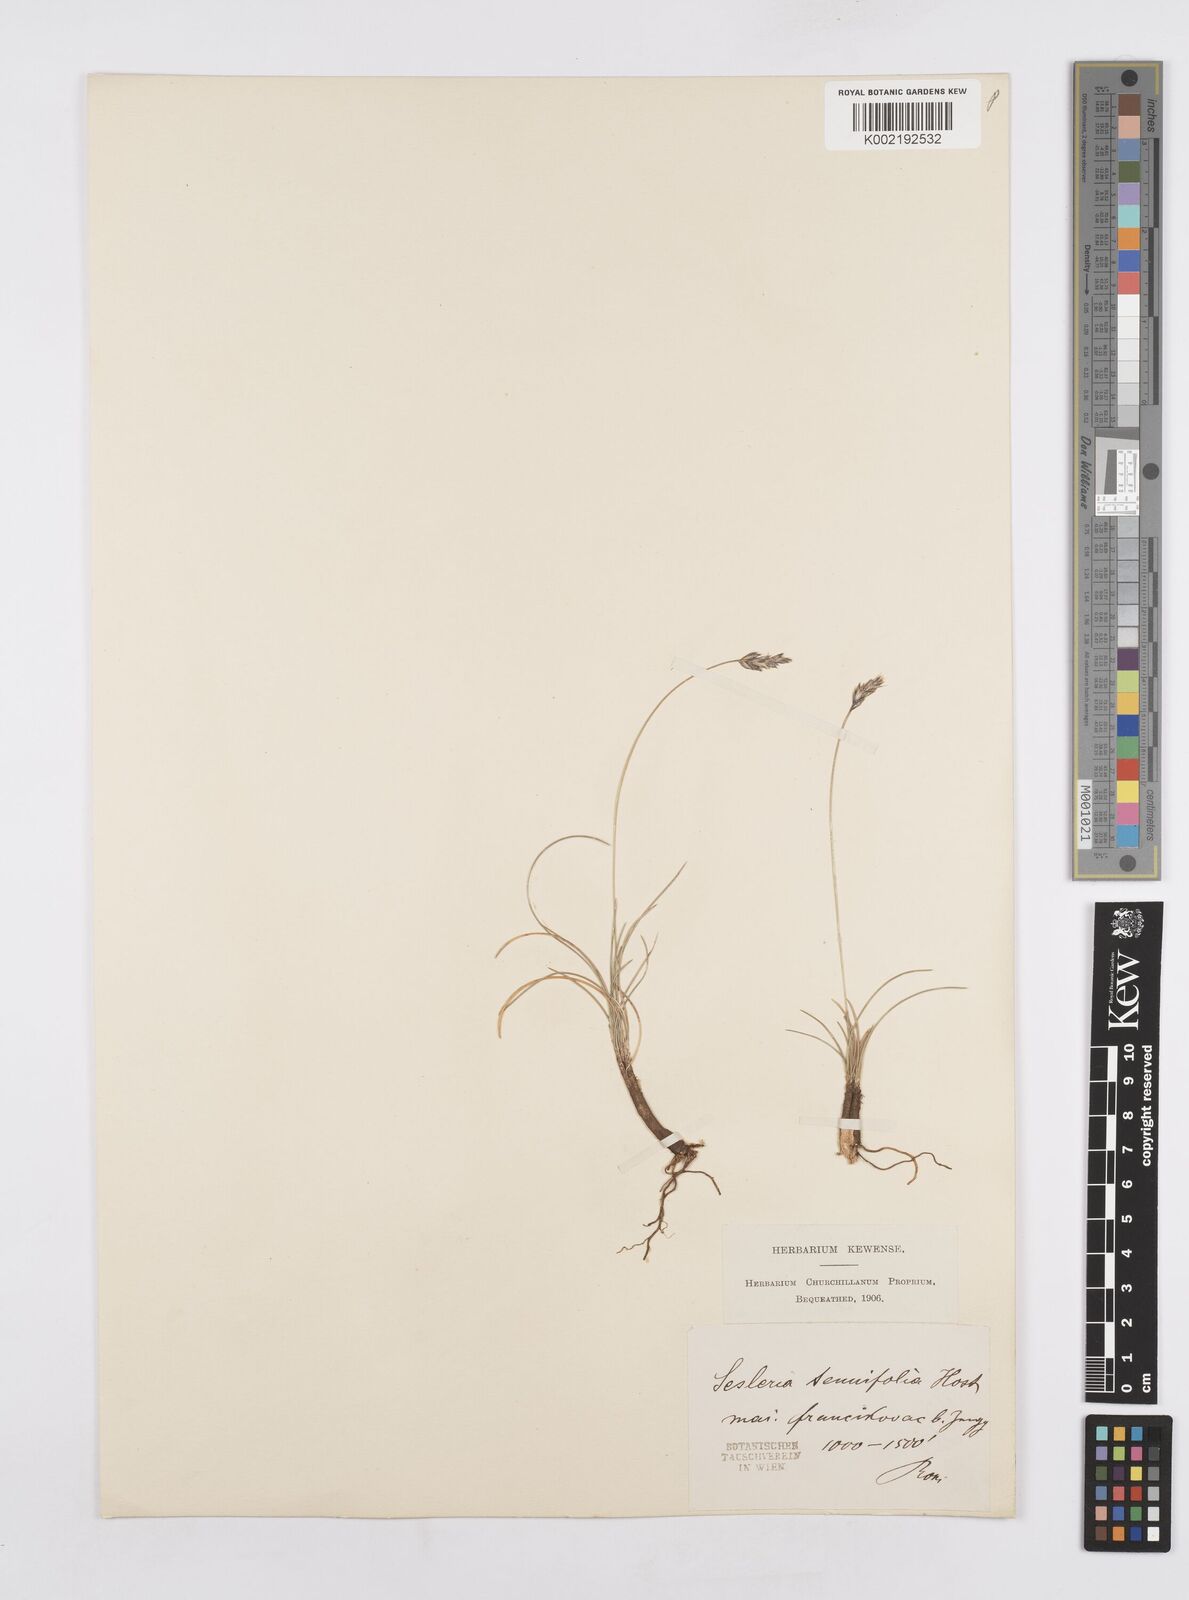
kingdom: Plantae
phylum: Tracheophyta
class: Liliopsida
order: Poales
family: Poaceae
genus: Sesleria
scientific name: Sesleria juncifolia
